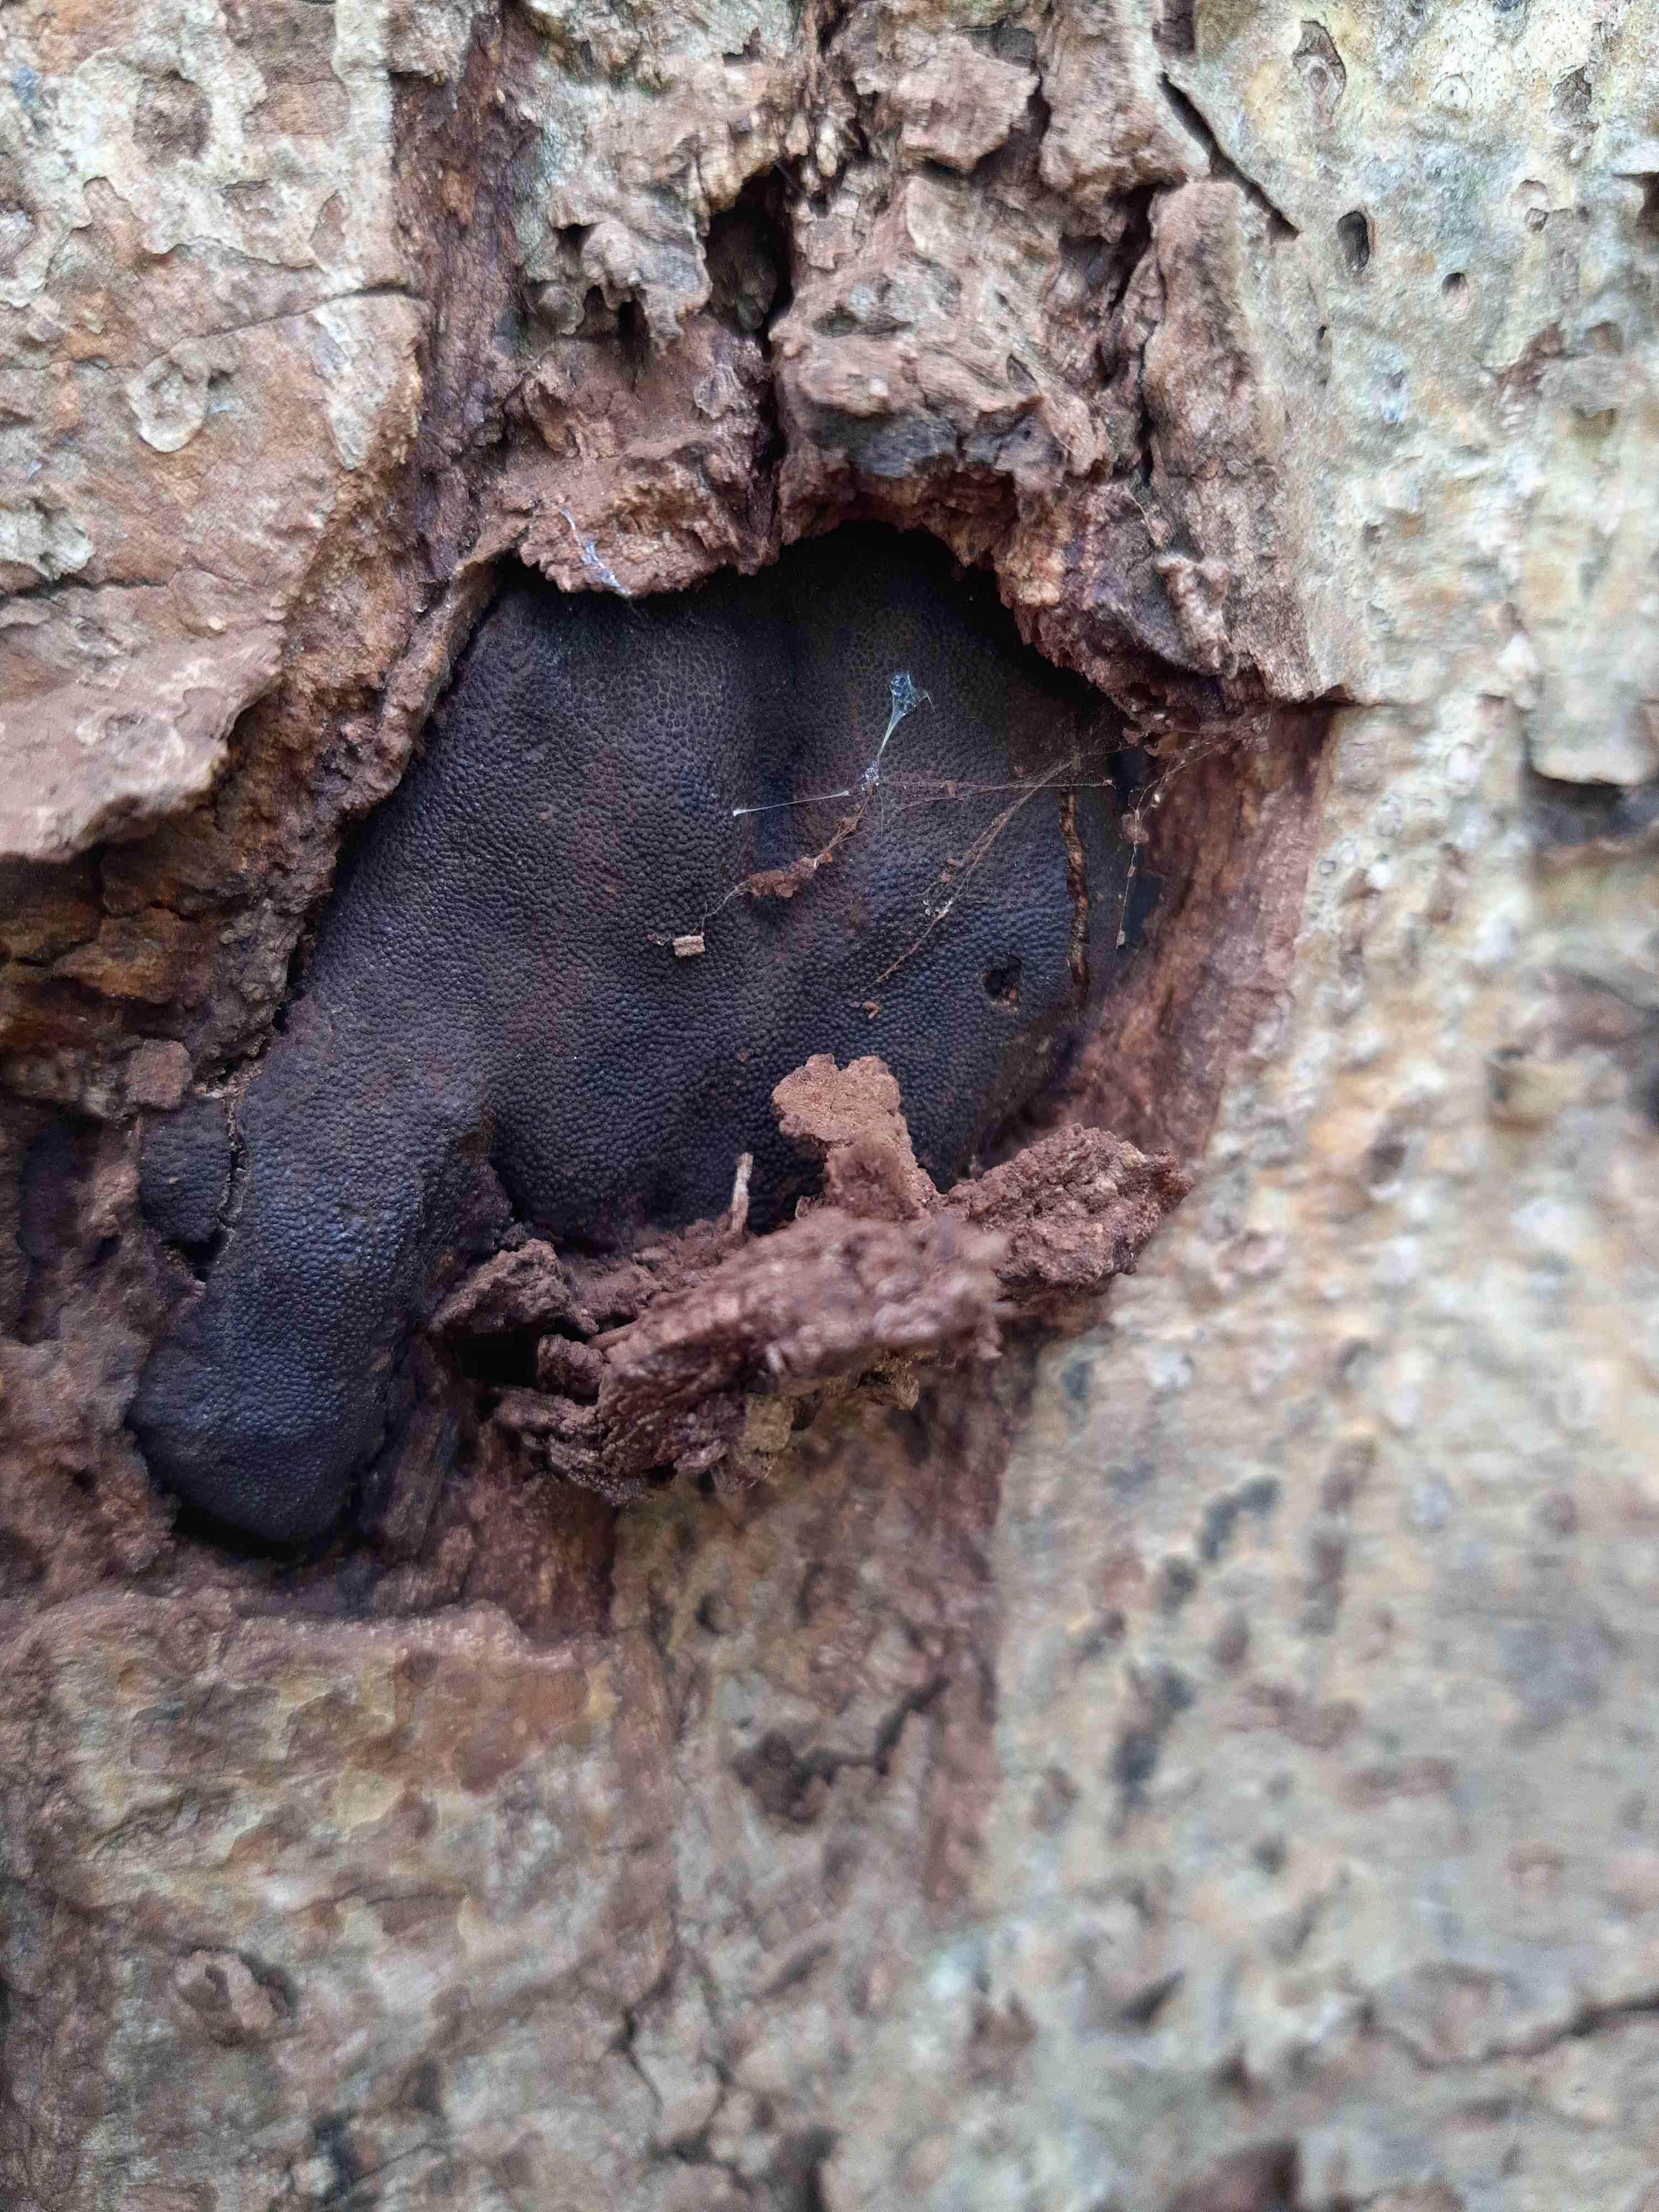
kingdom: Fungi
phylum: Ascomycota
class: Sordariomycetes
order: Boliniales
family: Boliniaceae
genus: Camarops
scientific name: Camarops polysperma
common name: elle-kulsnegl
